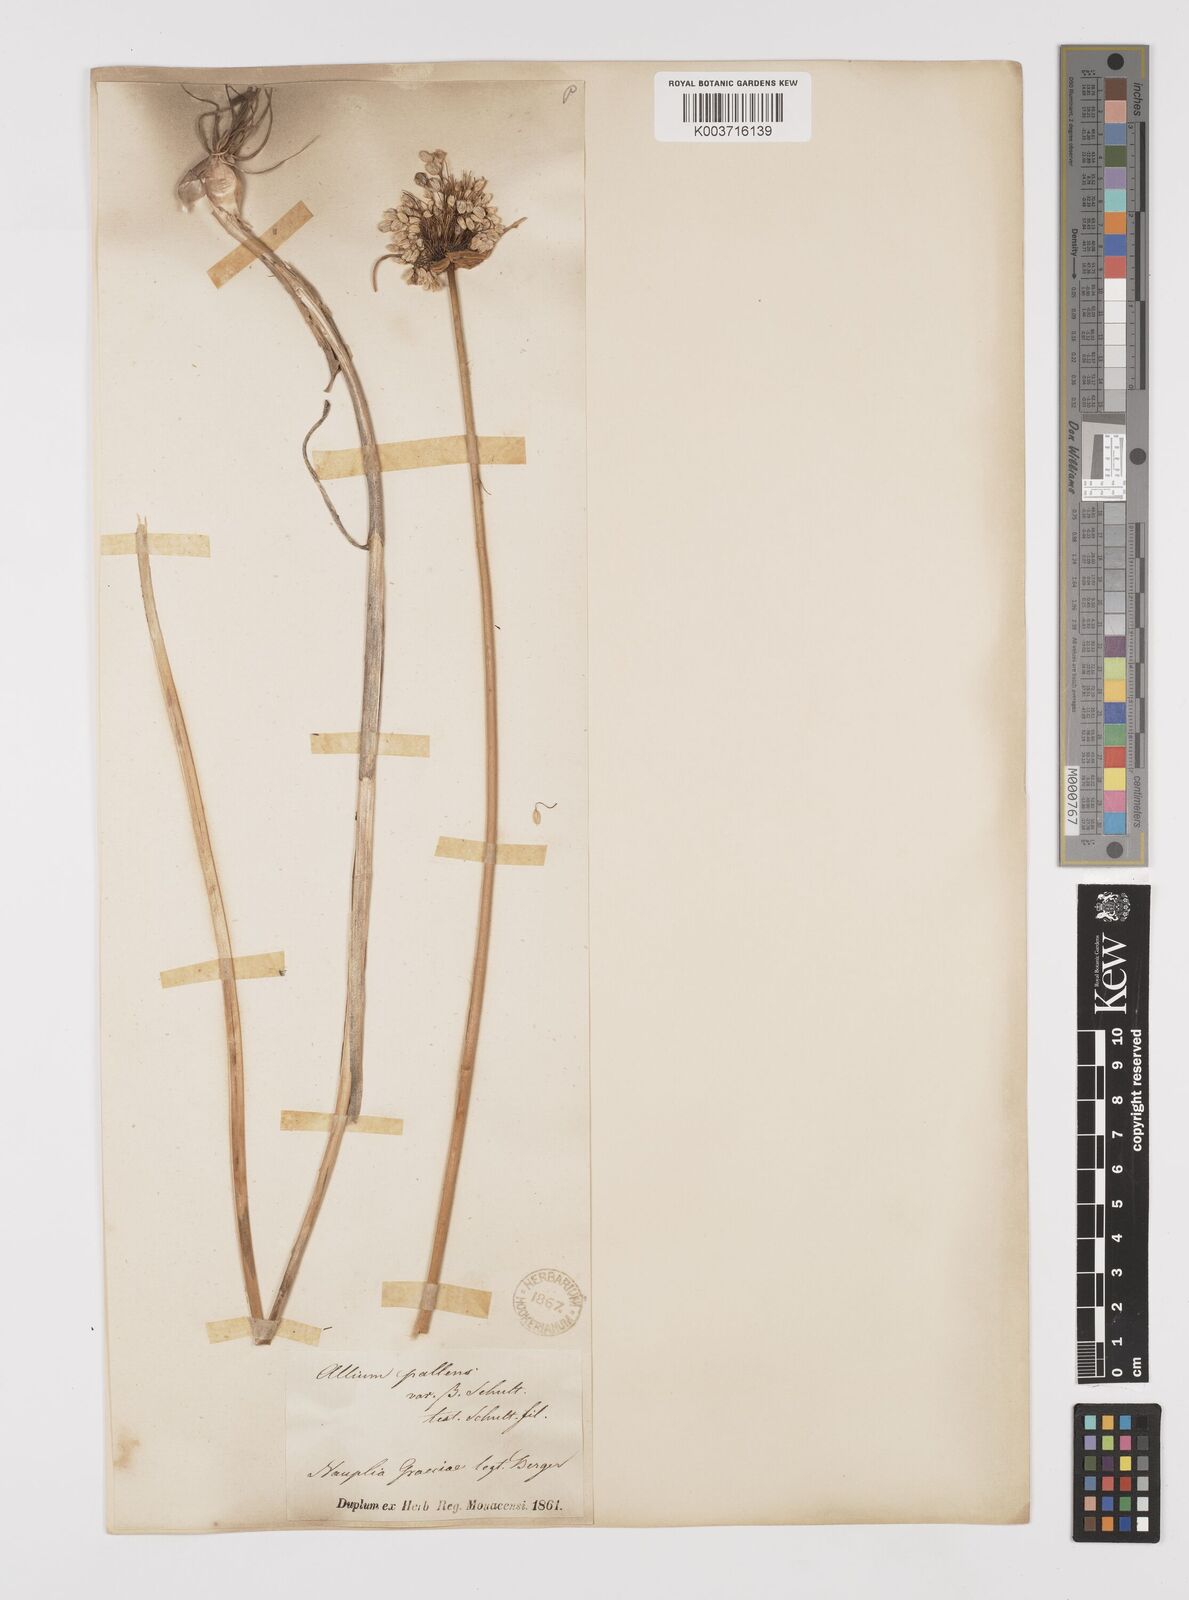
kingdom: Plantae
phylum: Tracheophyta
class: Liliopsida
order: Asparagales
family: Amaryllidaceae
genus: Allium
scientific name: Allium pallens
